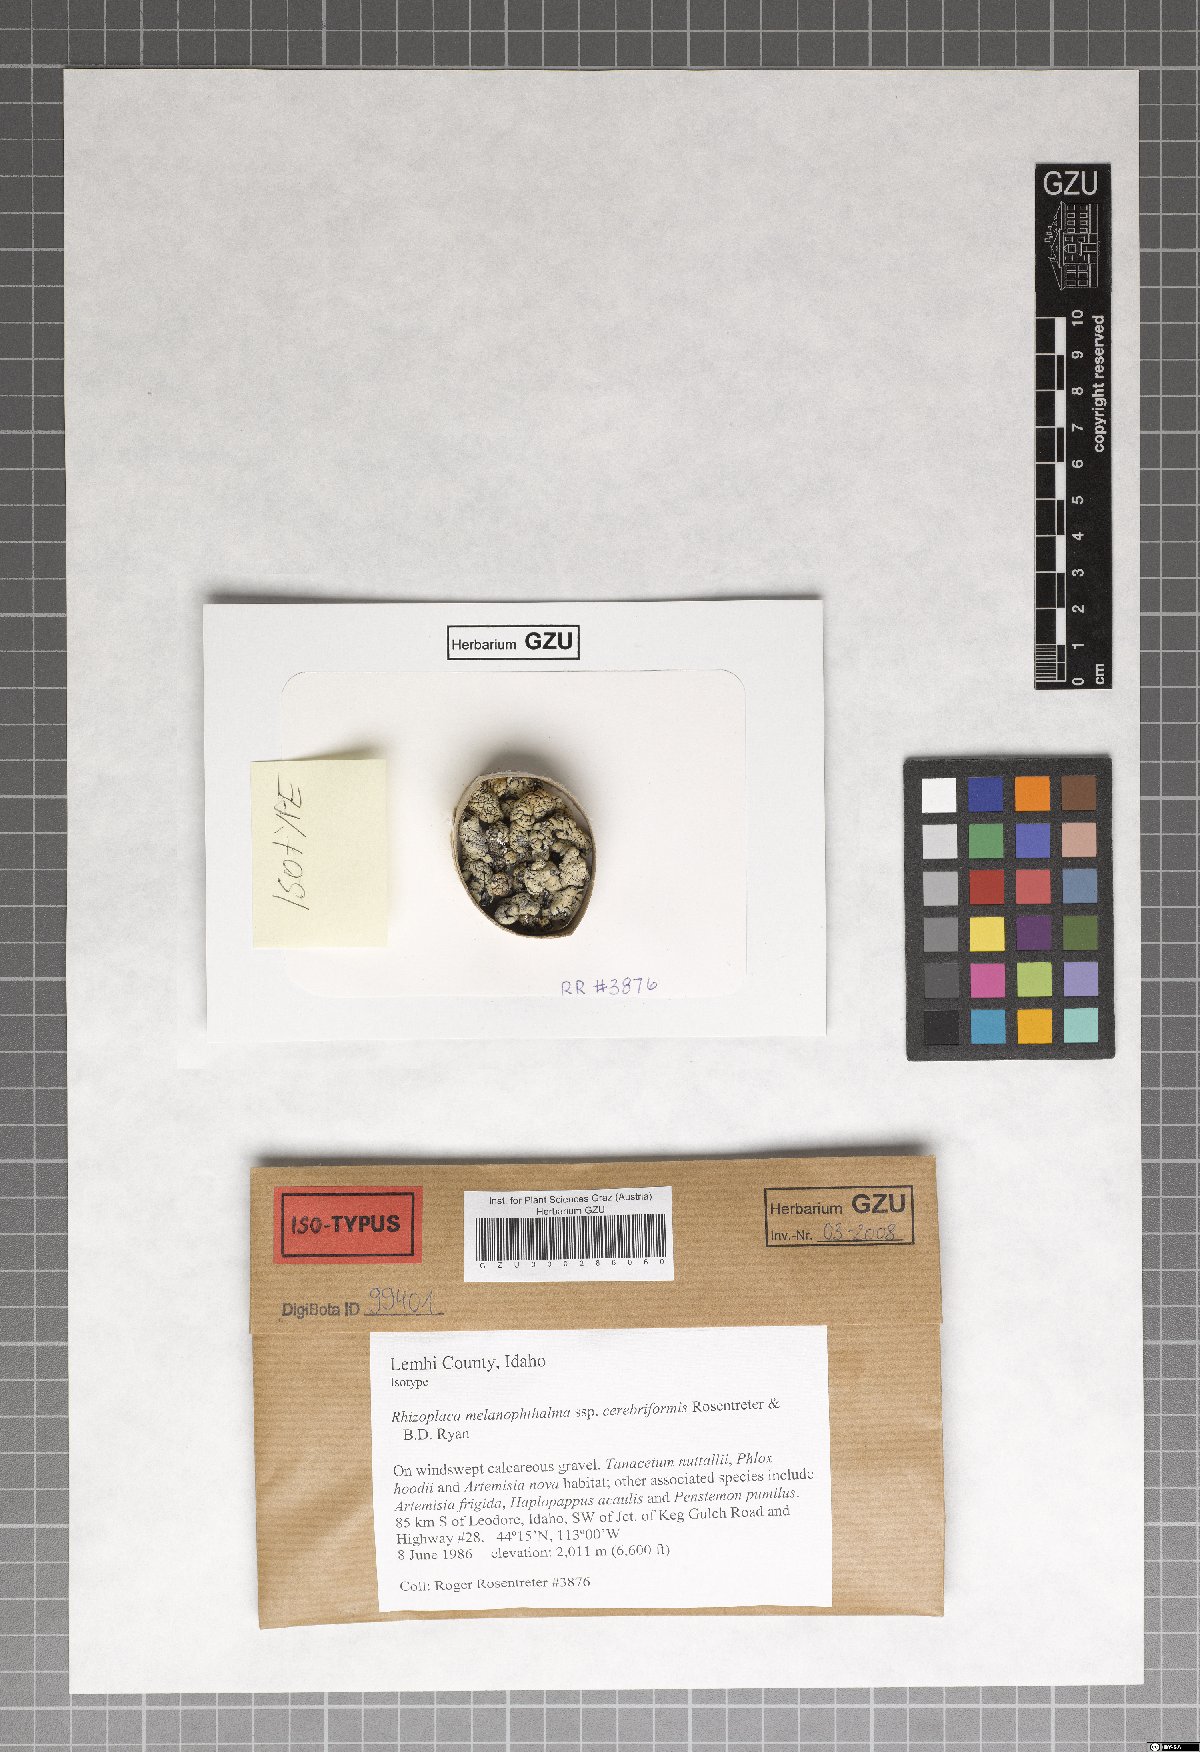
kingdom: Fungi
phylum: Ascomycota
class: Lecanoromycetes
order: Lecanorales
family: Lecanoraceae
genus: Rhizoplaca
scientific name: Rhizoplaca melanophthalma
